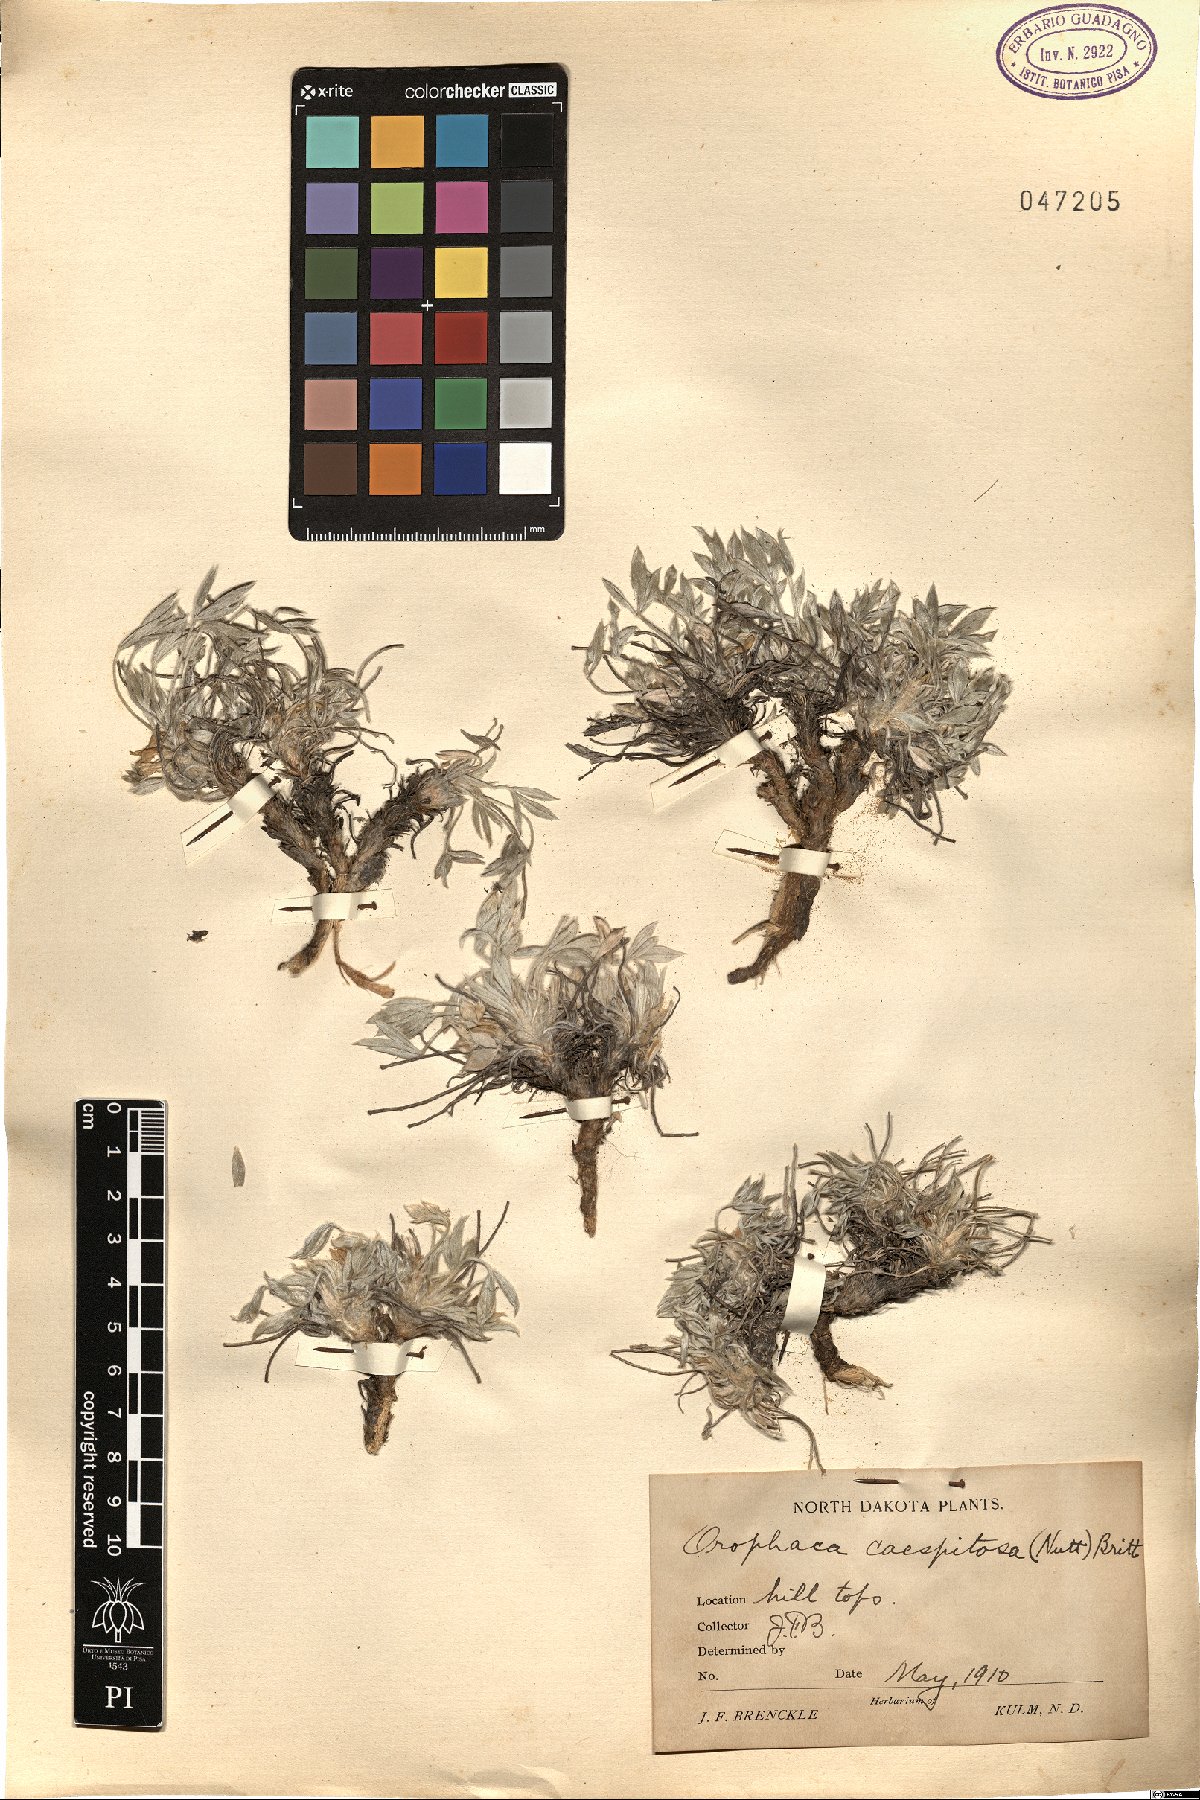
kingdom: Plantae
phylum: Tracheophyta
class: Magnoliopsida
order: Fabales
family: Fabaceae
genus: Astragalus
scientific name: Astragalus gilviflorus
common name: Cushion milk-vetch
